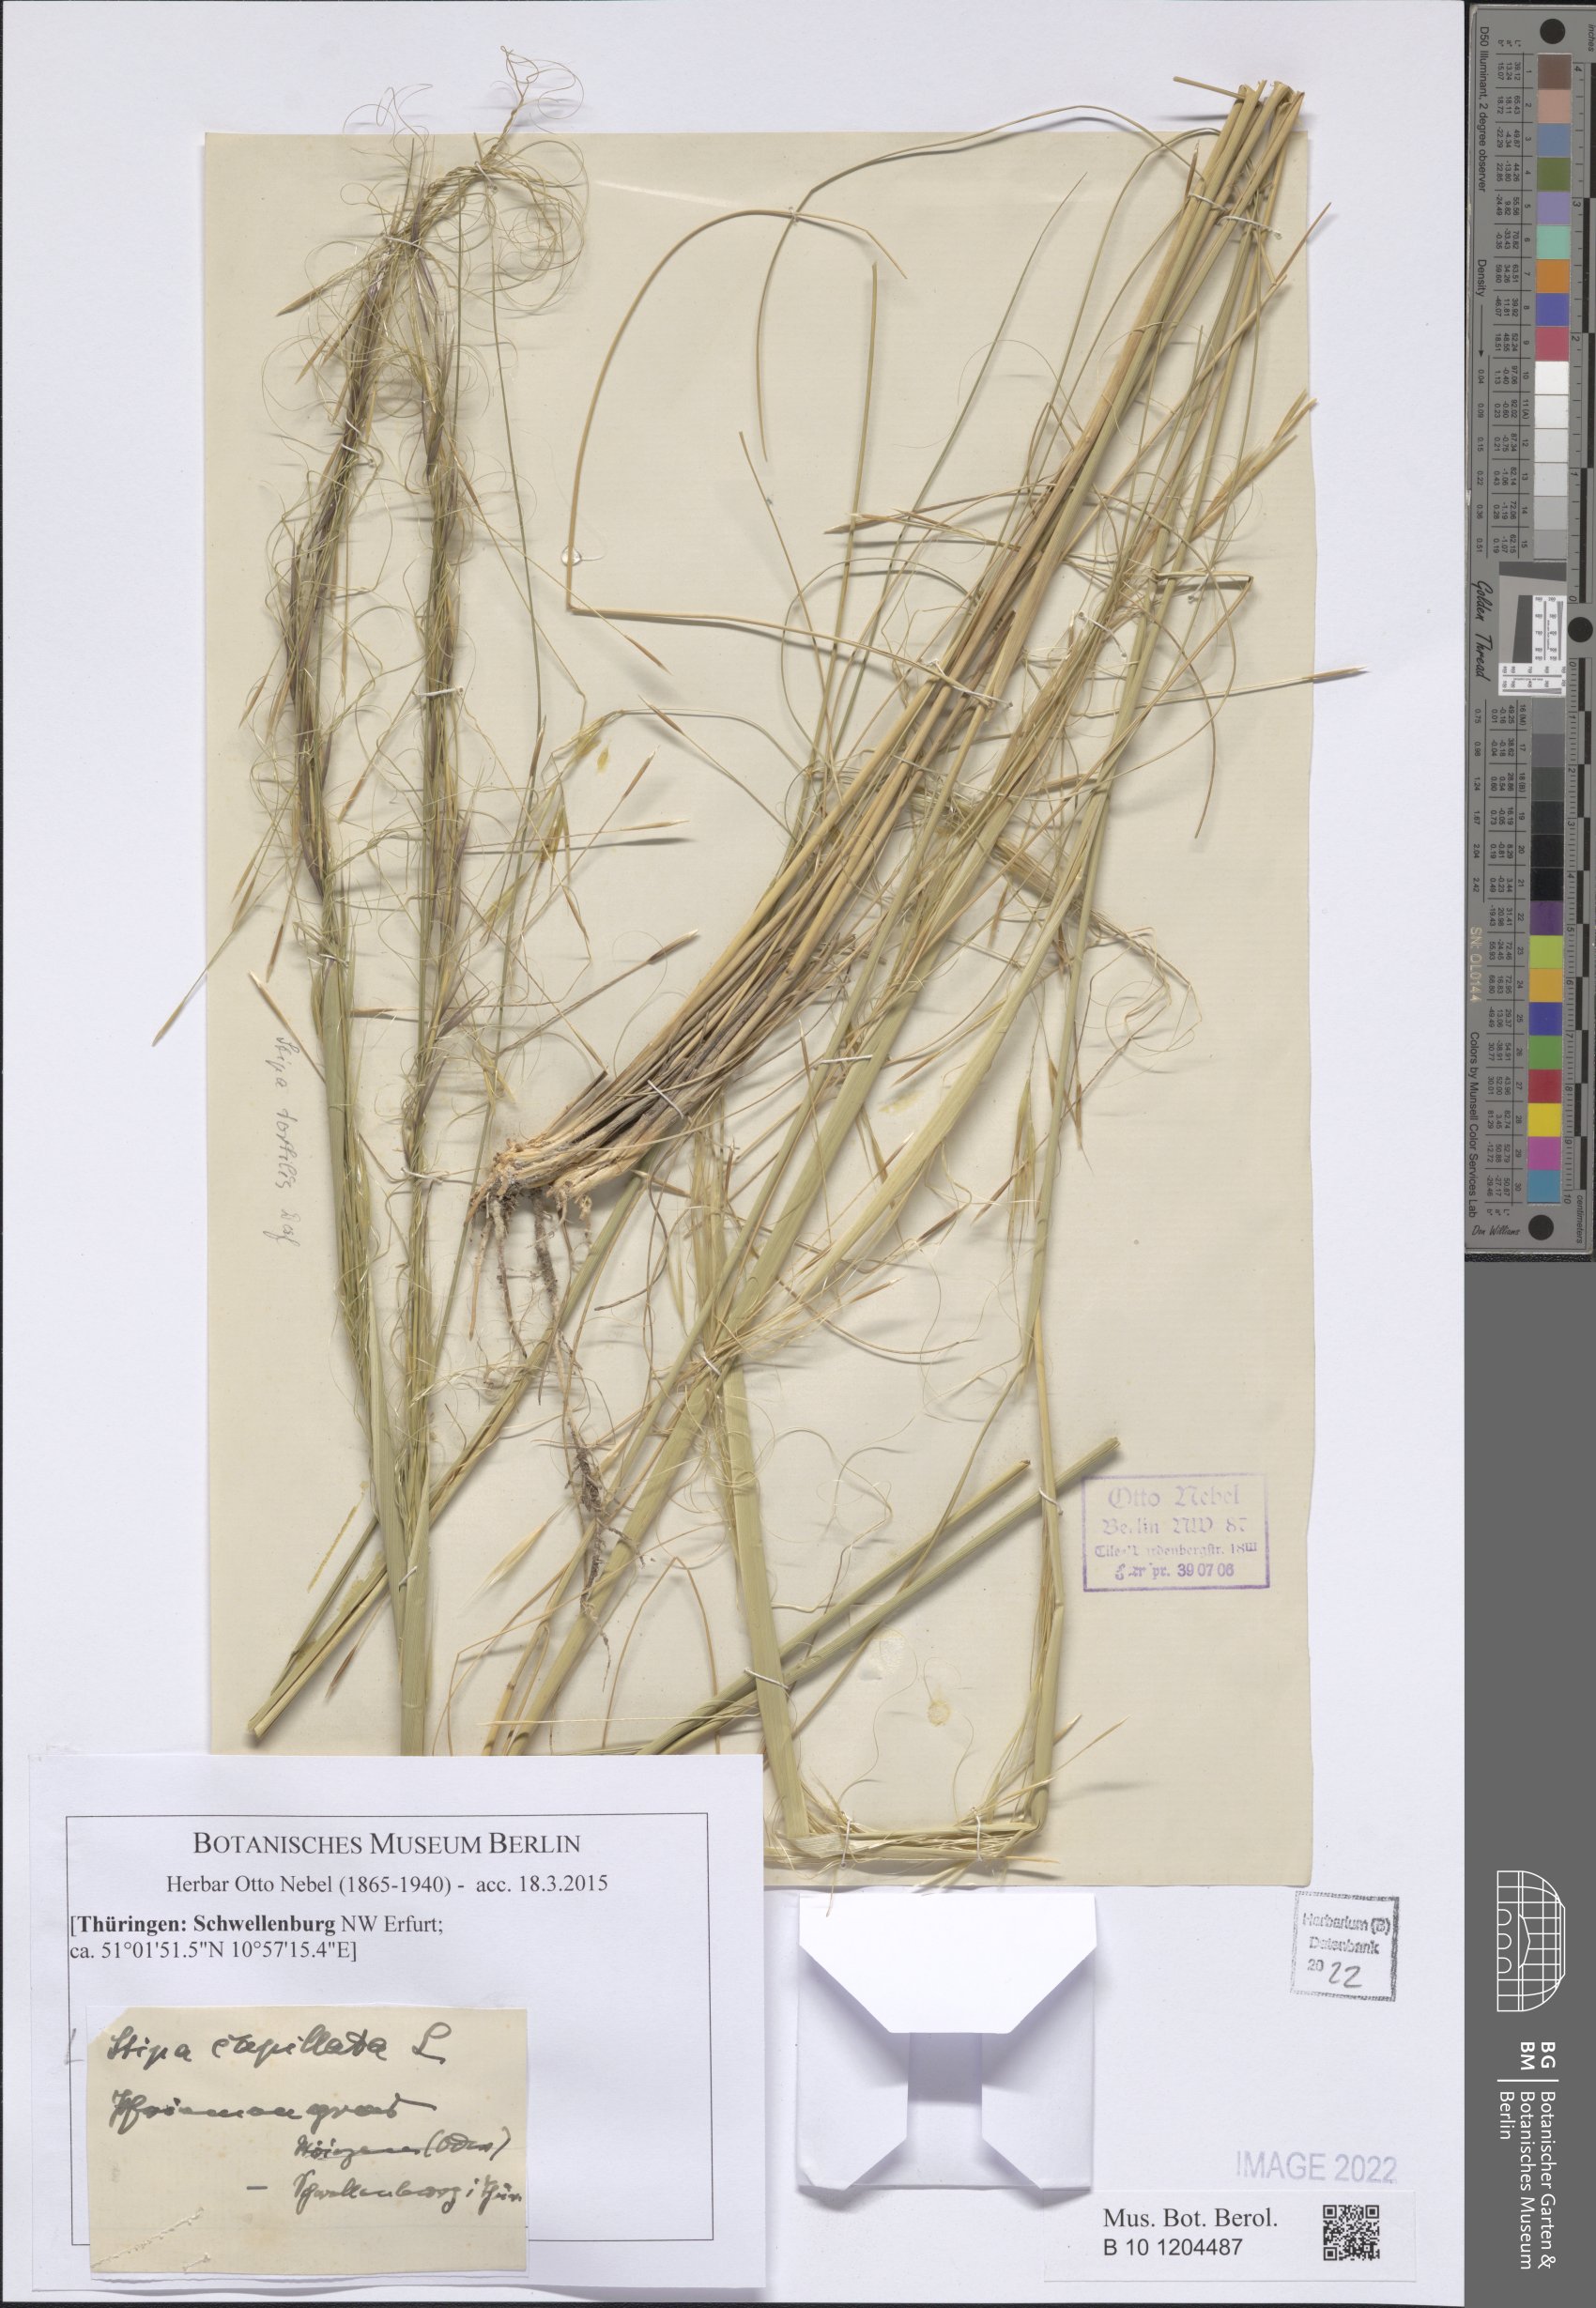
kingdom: Plantae
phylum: Tracheophyta
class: Liliopsida
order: Poales
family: Poaceae
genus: Stipa
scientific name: Stipa capillata
